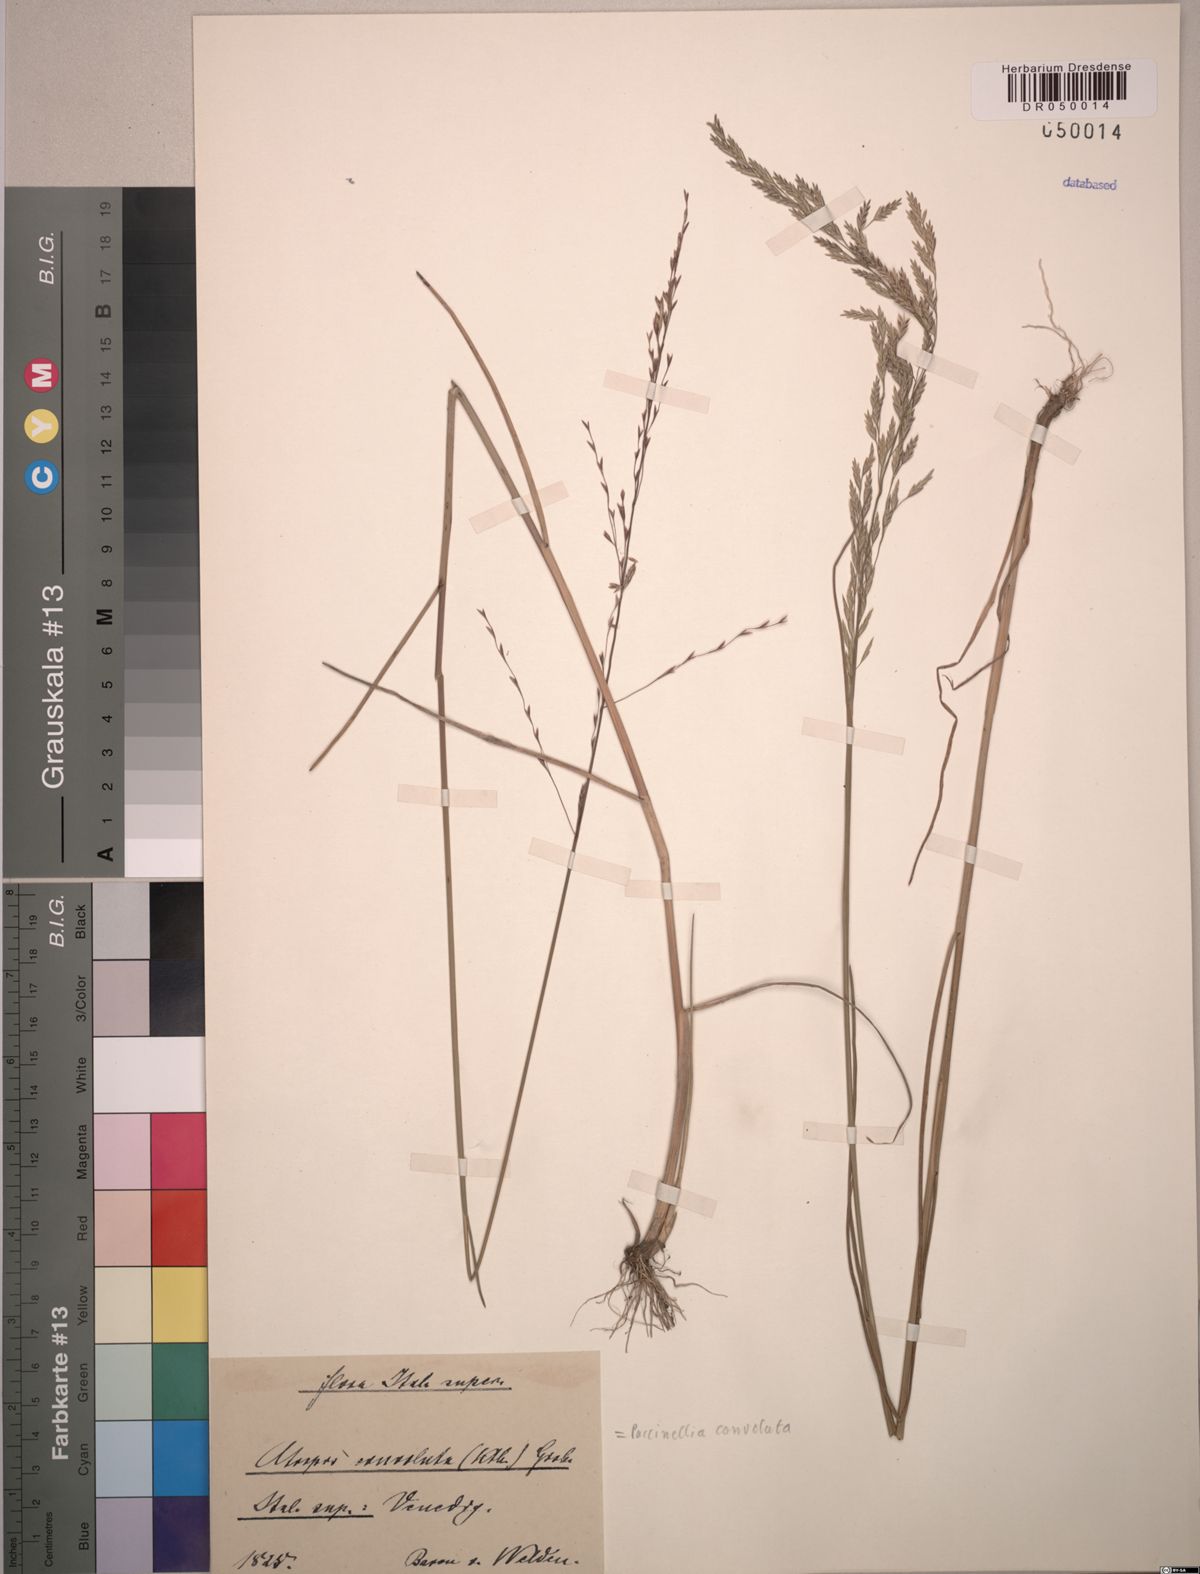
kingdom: Plantae
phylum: Tracheophyta
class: Liliopsida
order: Poales
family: Poaceae
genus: Puccinellia
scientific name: Puccinellia convoluta
